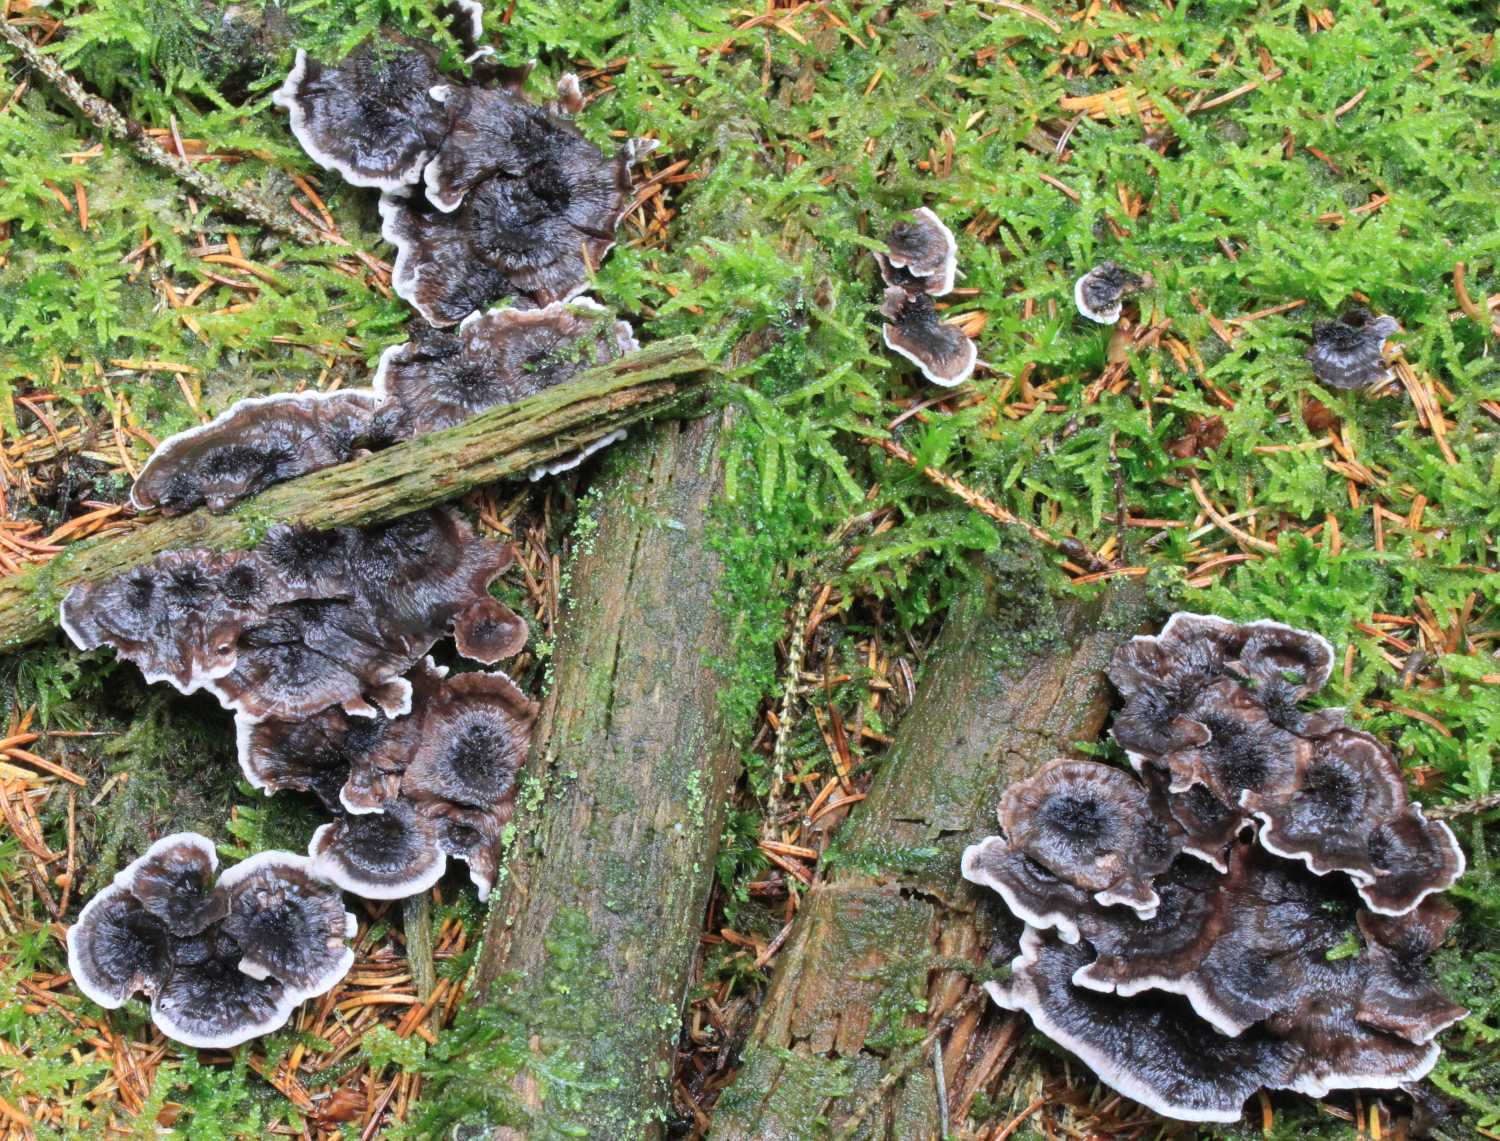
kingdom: Fungi
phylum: Basidiomycota
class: Agaricomycetes
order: Thelephorales
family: Thelephoraceae
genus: Phellodon
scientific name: Phellodon tomentosus
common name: vellugtende duftpigsvamp
